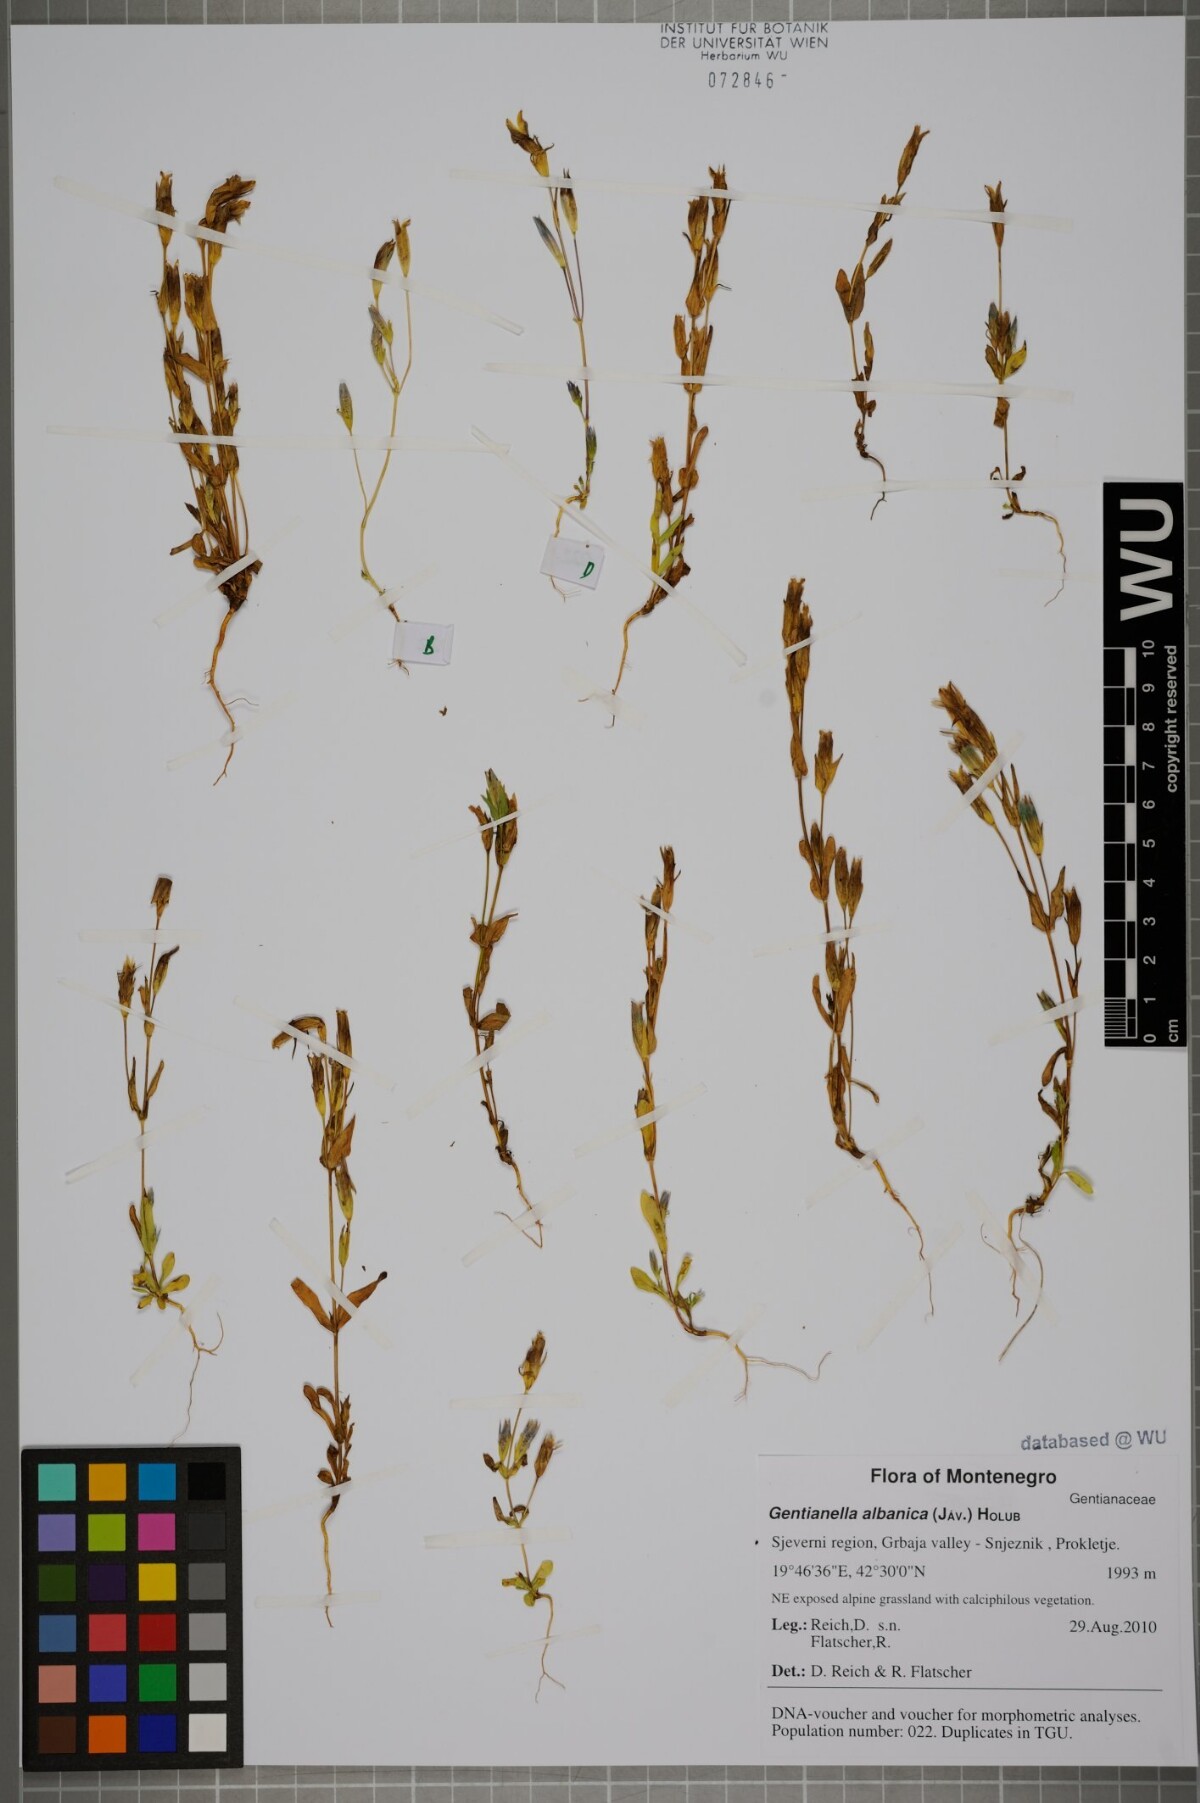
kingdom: Plantae
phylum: Tracheophyta
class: Magnoliopsida
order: Gentianales
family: Gentianaceae
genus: Gentianella
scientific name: Gentianella albanica
